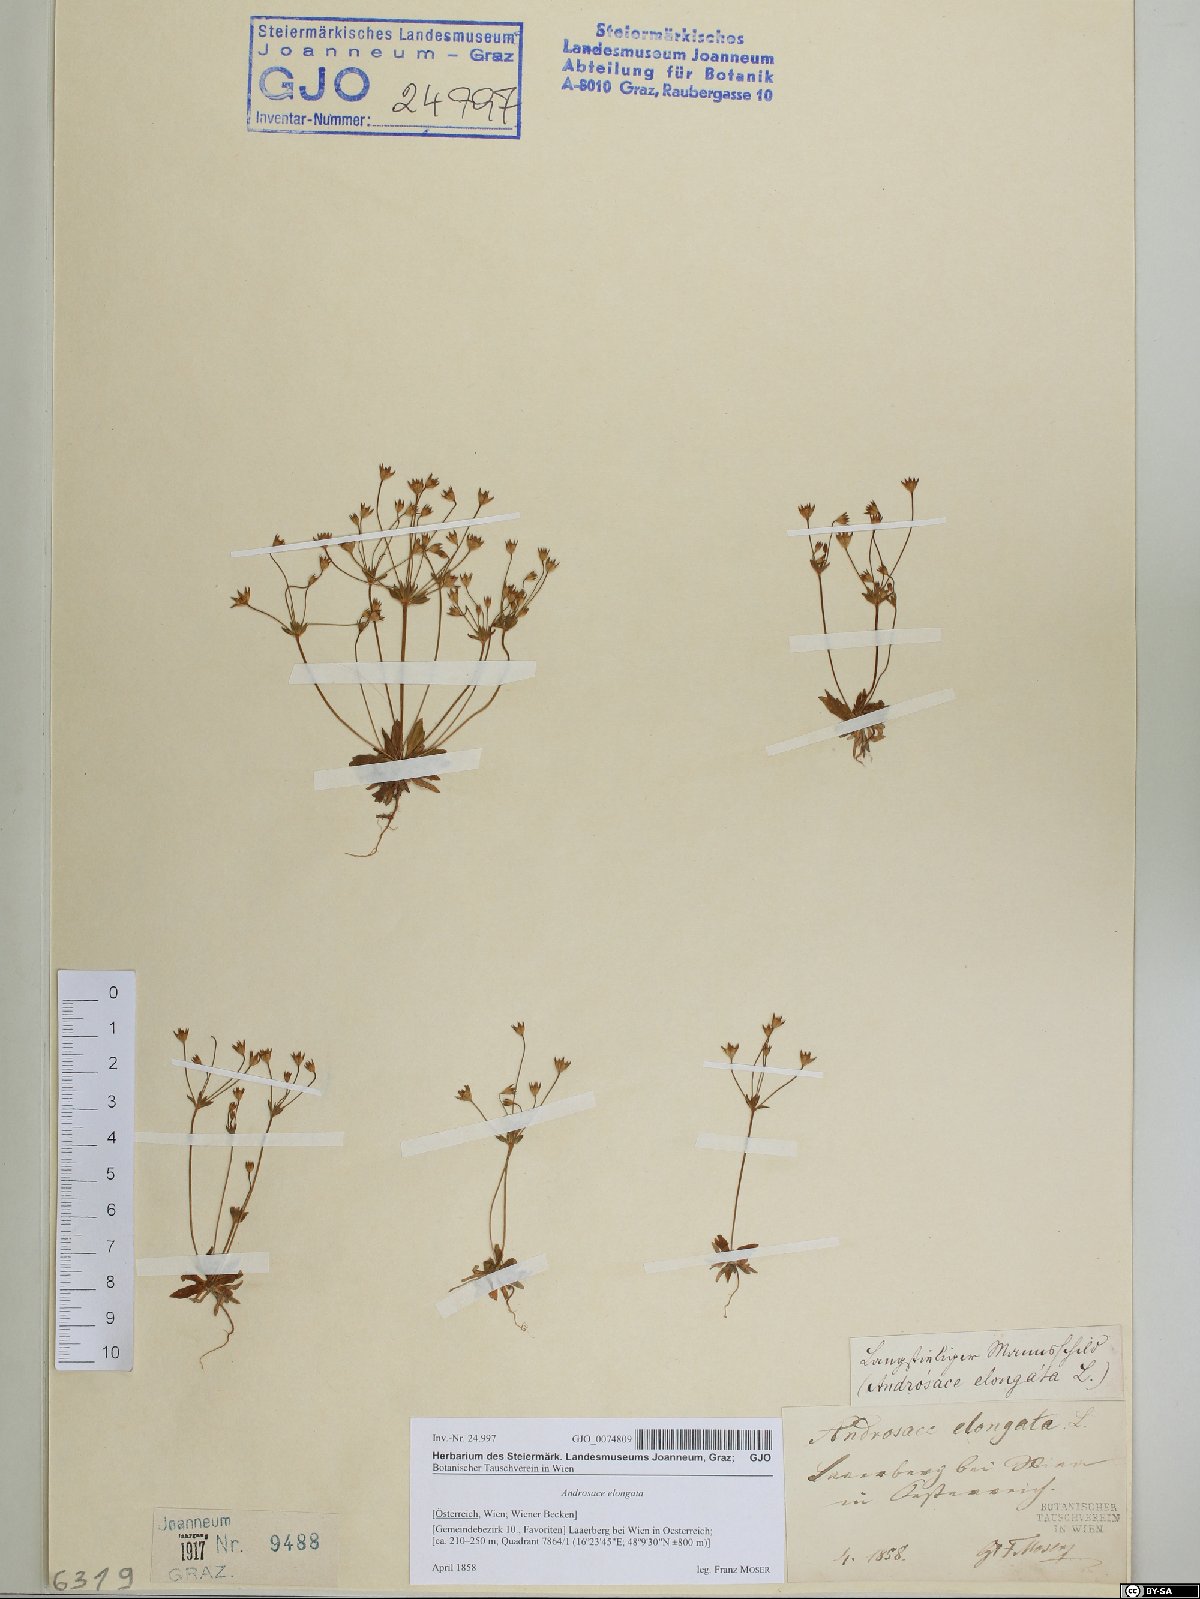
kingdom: Plantae
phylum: Tracheophyta
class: Magnoliopsida
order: Ericales
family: Primulaceae
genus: Androsace
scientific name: Androsace elongata
